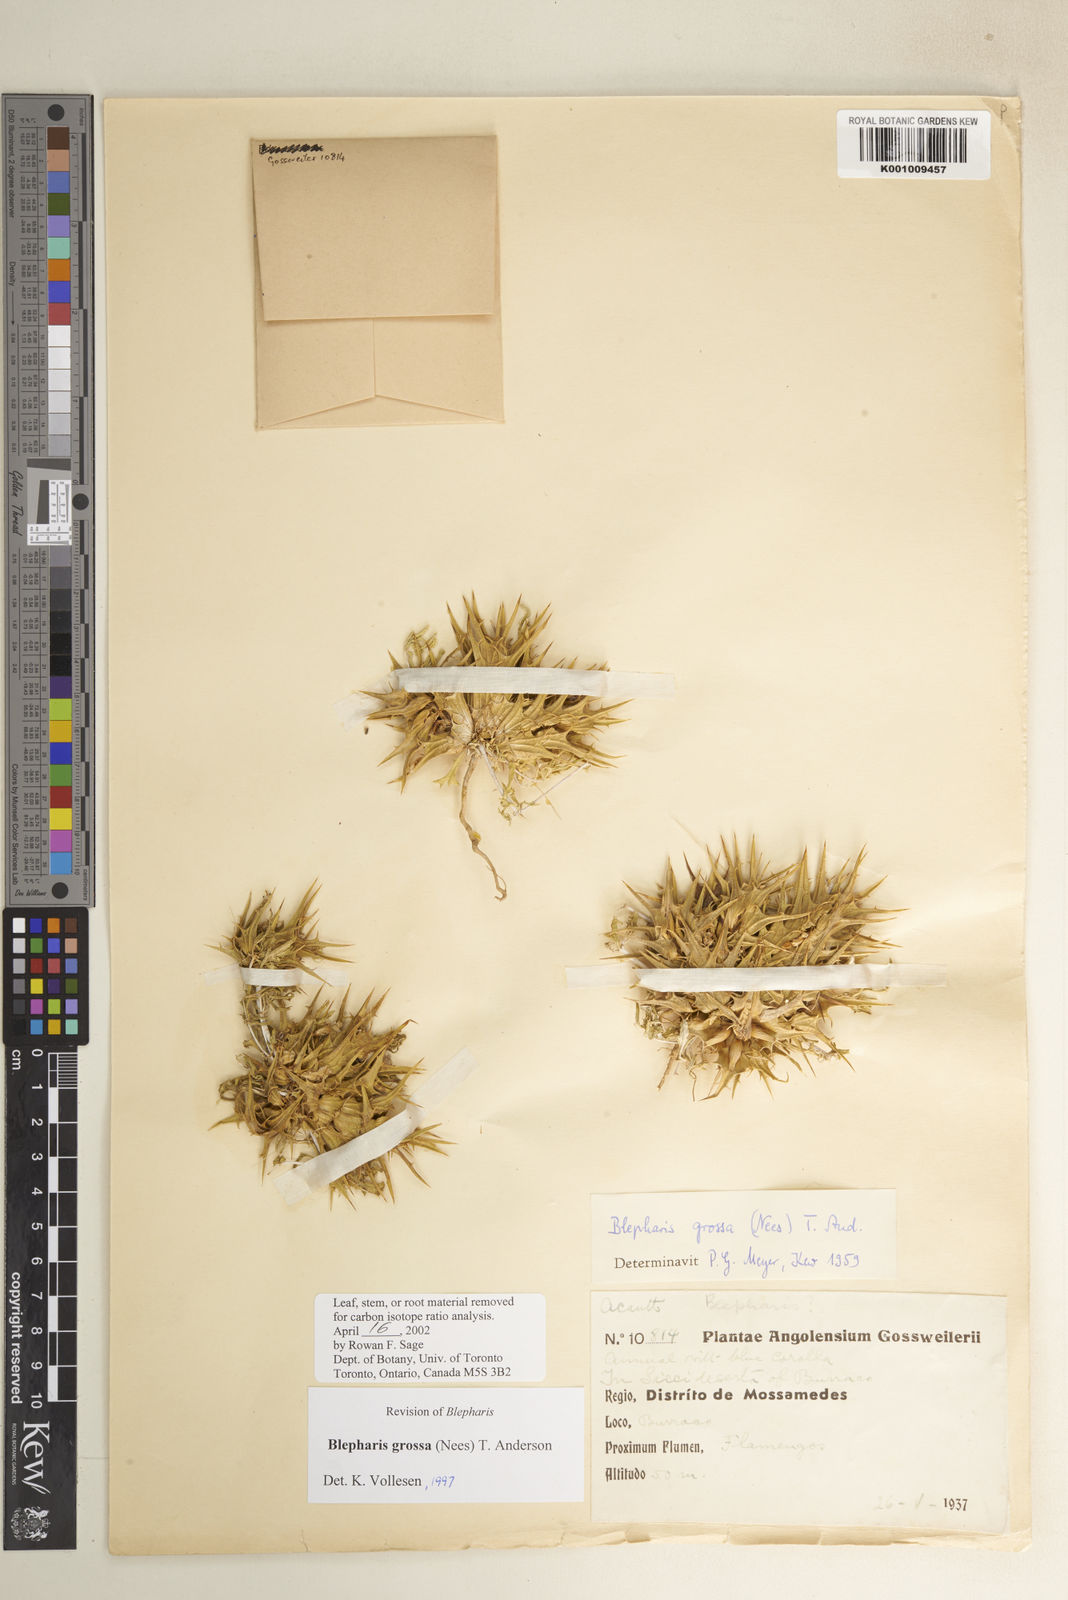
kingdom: Plantae
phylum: Tracheophyta
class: Magnoliopsida
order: Lamiales
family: Acanthaceae
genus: Blepharis
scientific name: Blepharis grossa
